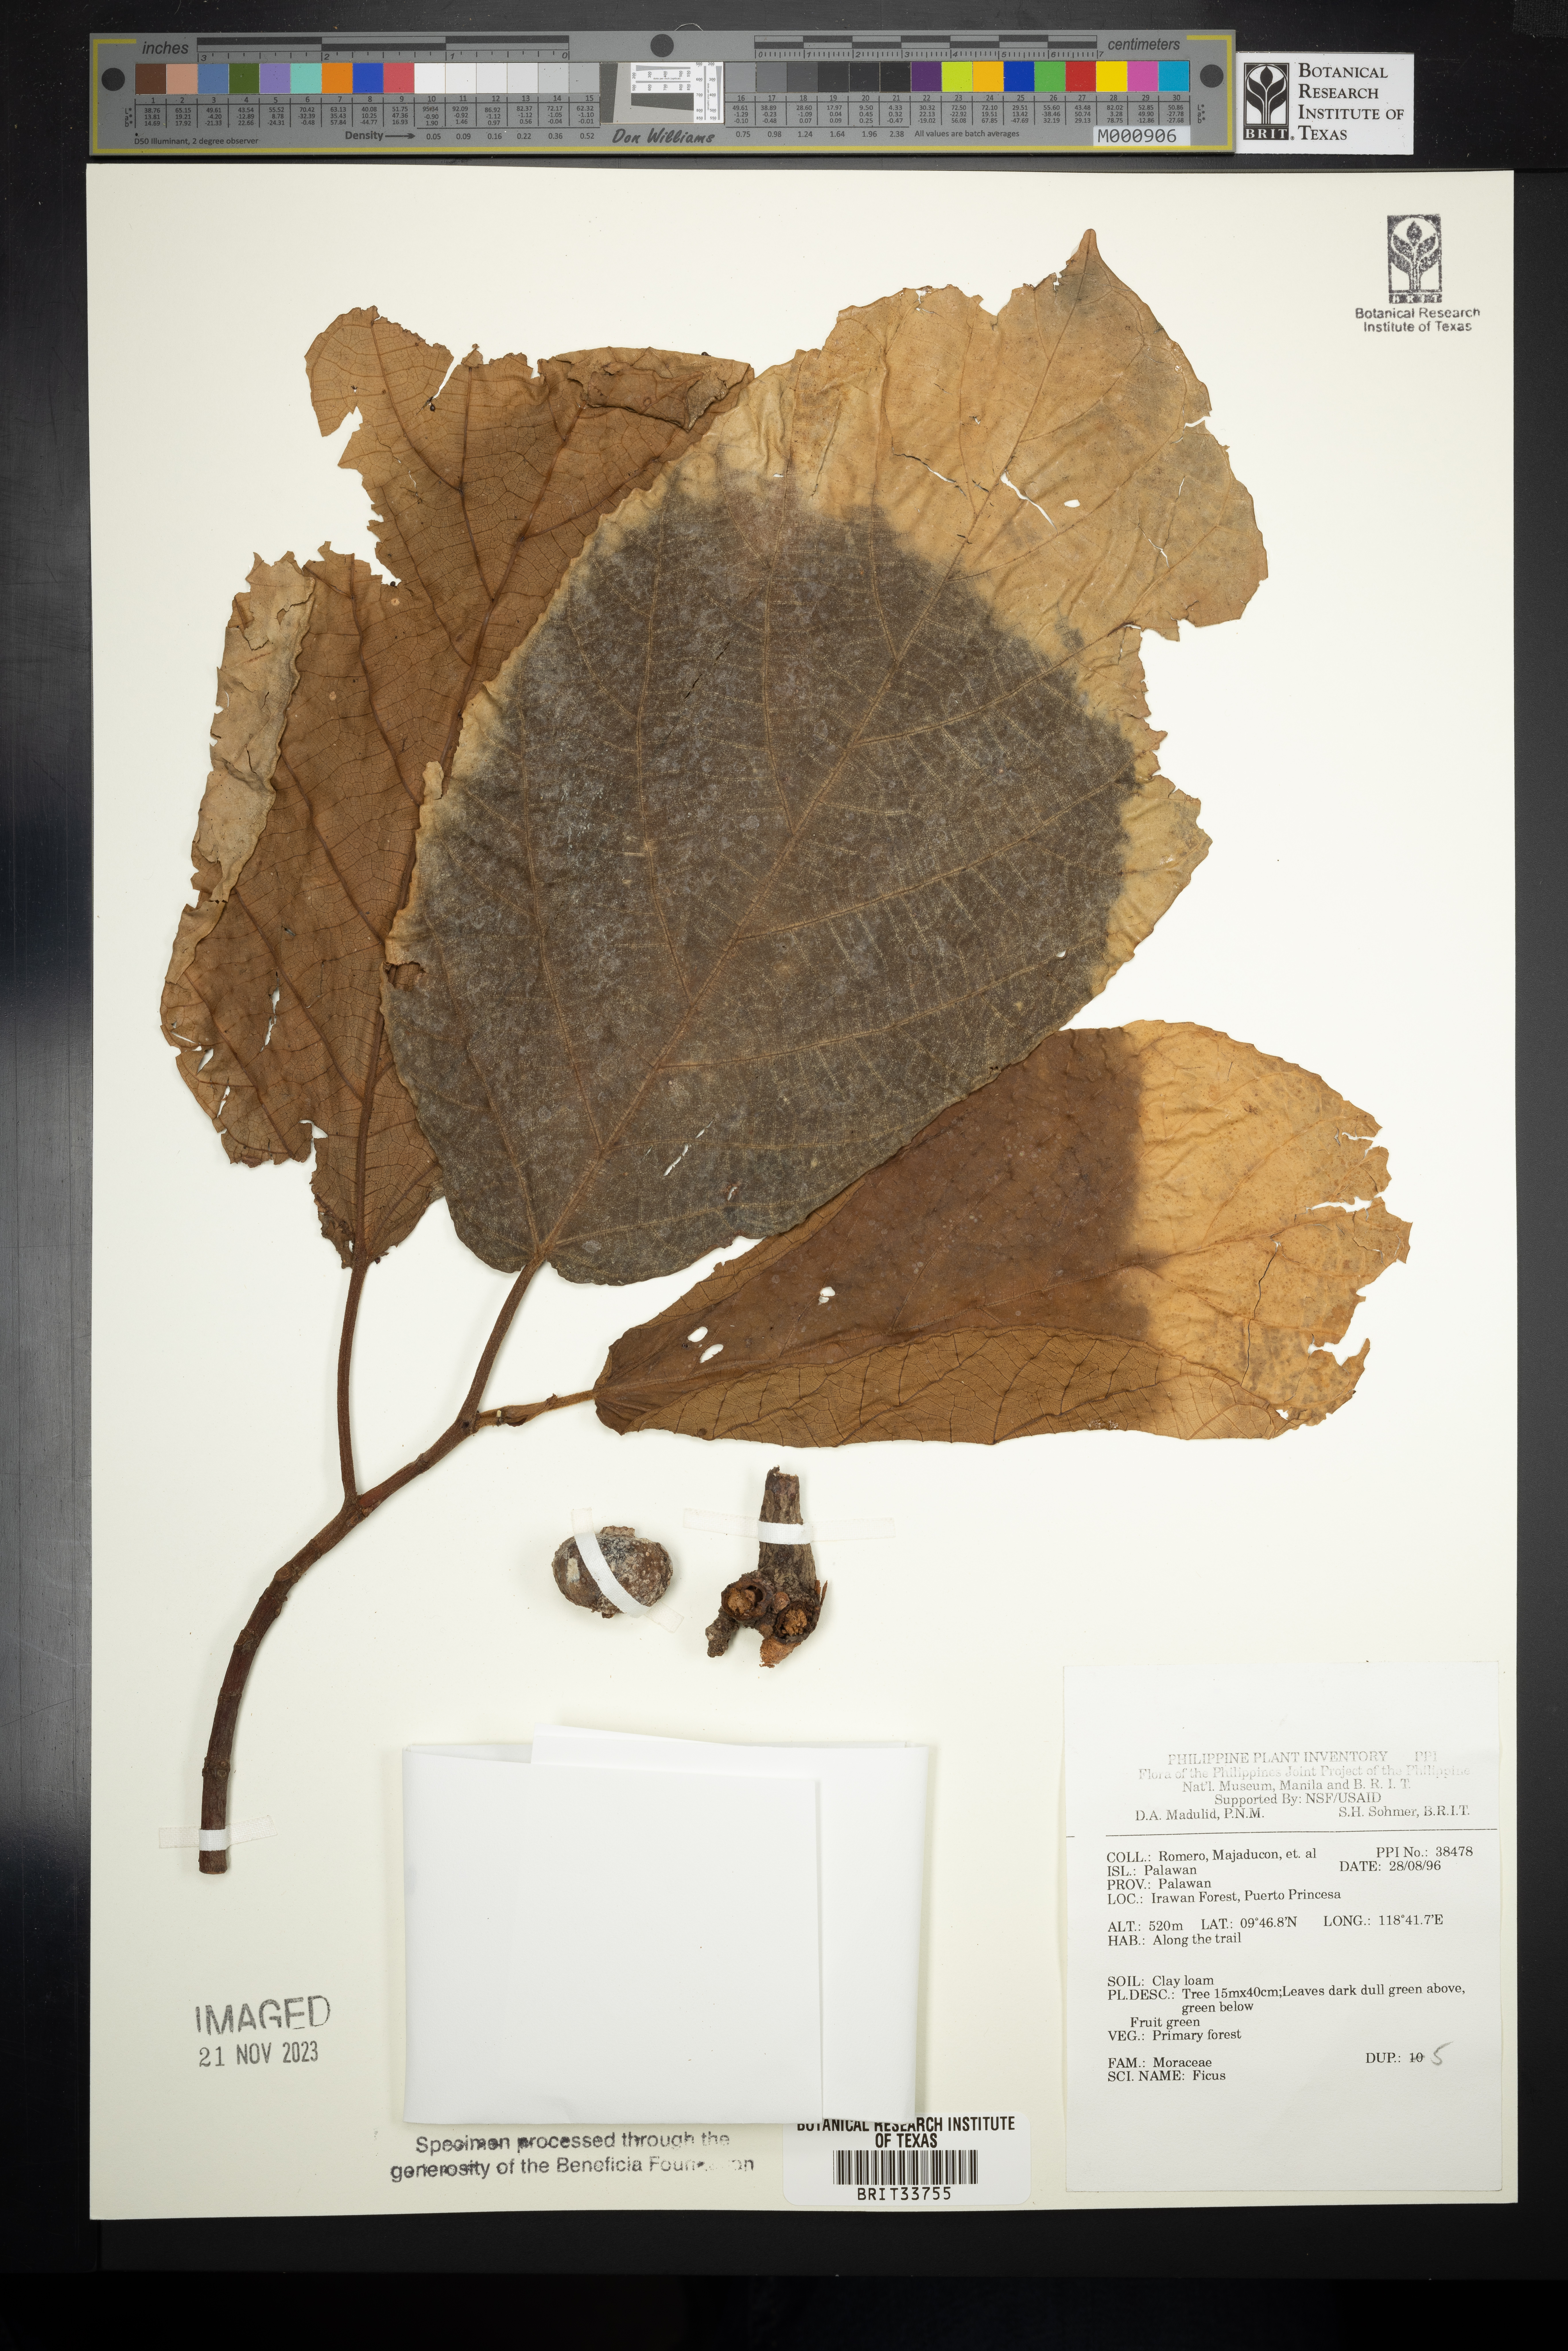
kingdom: Plantae
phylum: Tracheophyta
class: Magnoliopsida
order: Rosales
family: Moraceae
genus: Ficus
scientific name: Ficus
